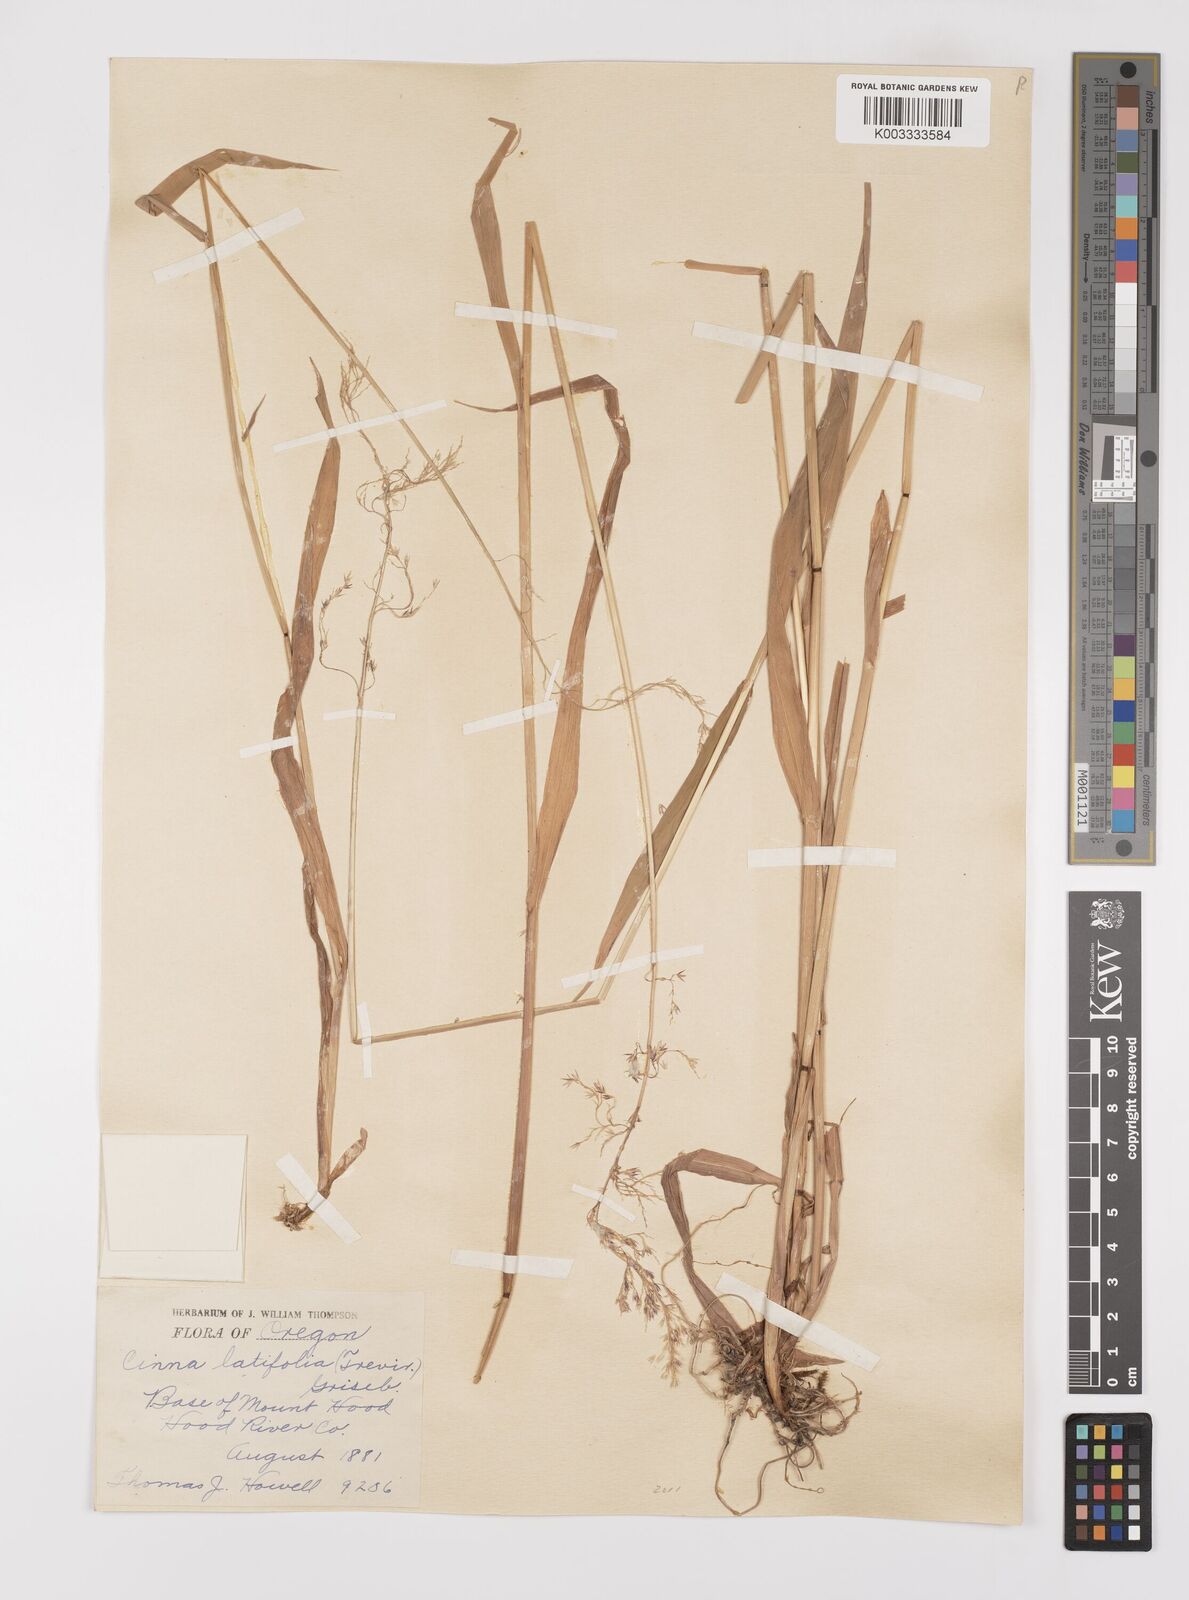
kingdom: Plantae
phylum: Tracheophyta
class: Liliopsida
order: Poales
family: Poaceae
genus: Cinna
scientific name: Cinna latifolia
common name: Drooping woodreed
